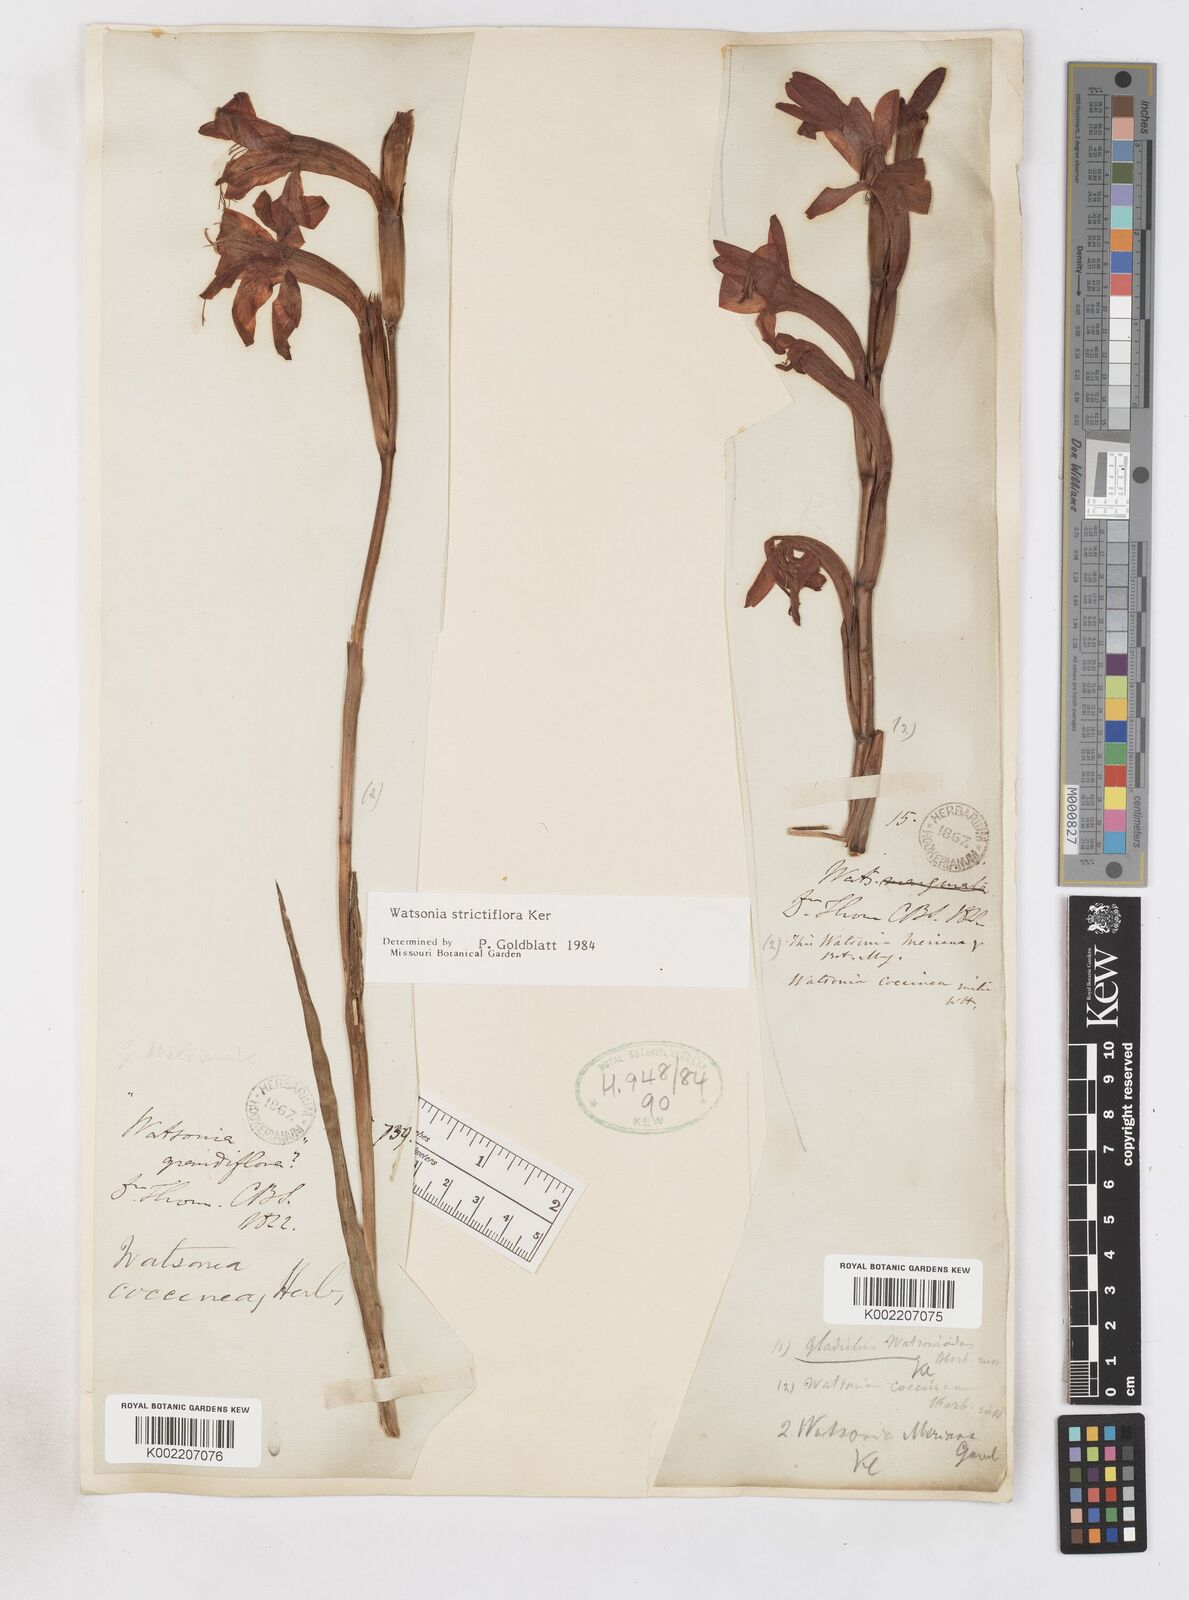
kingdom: Plantae
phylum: Tracheophyta
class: Liliopsida
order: Asparagales
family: Iridaceae
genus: Watsonia
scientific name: Watsonia strictiflora
